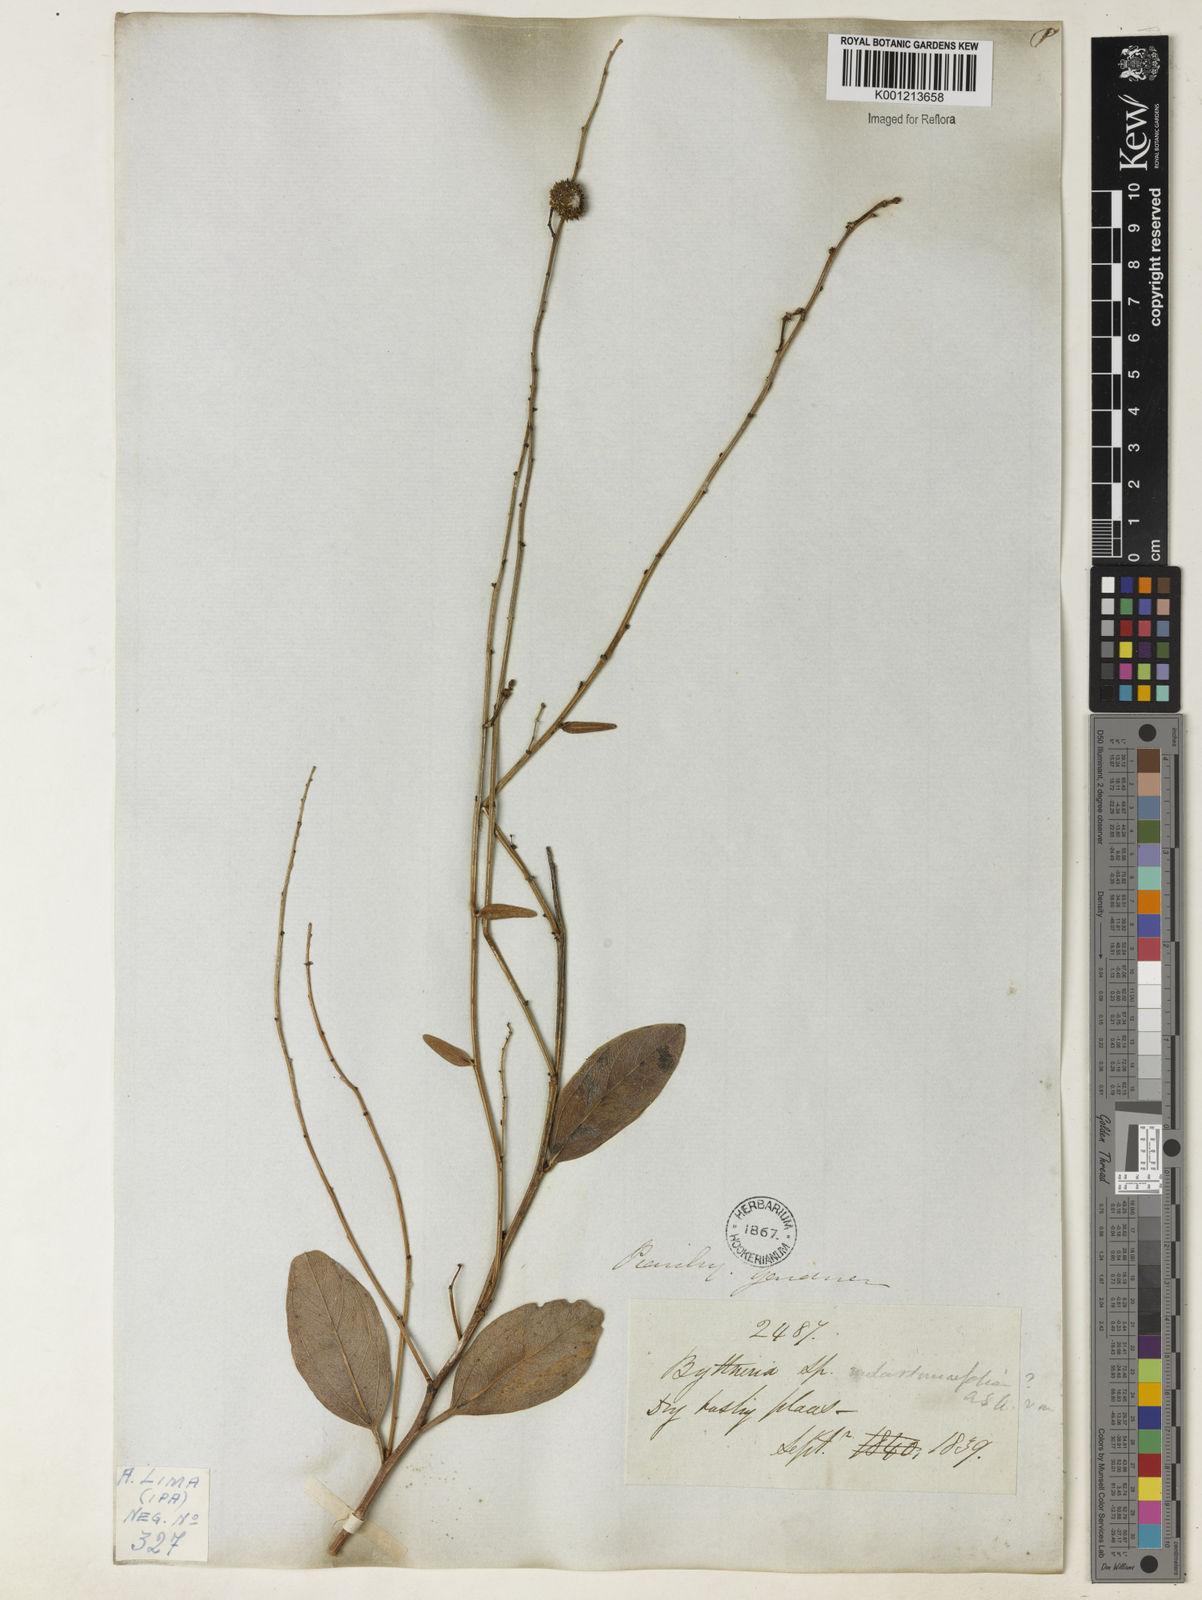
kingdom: Plantae
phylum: Tracheophyta
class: Magnoliopsida
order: Malvales
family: Malvaceae
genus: Byttneria
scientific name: Byttneria melastomifolia
